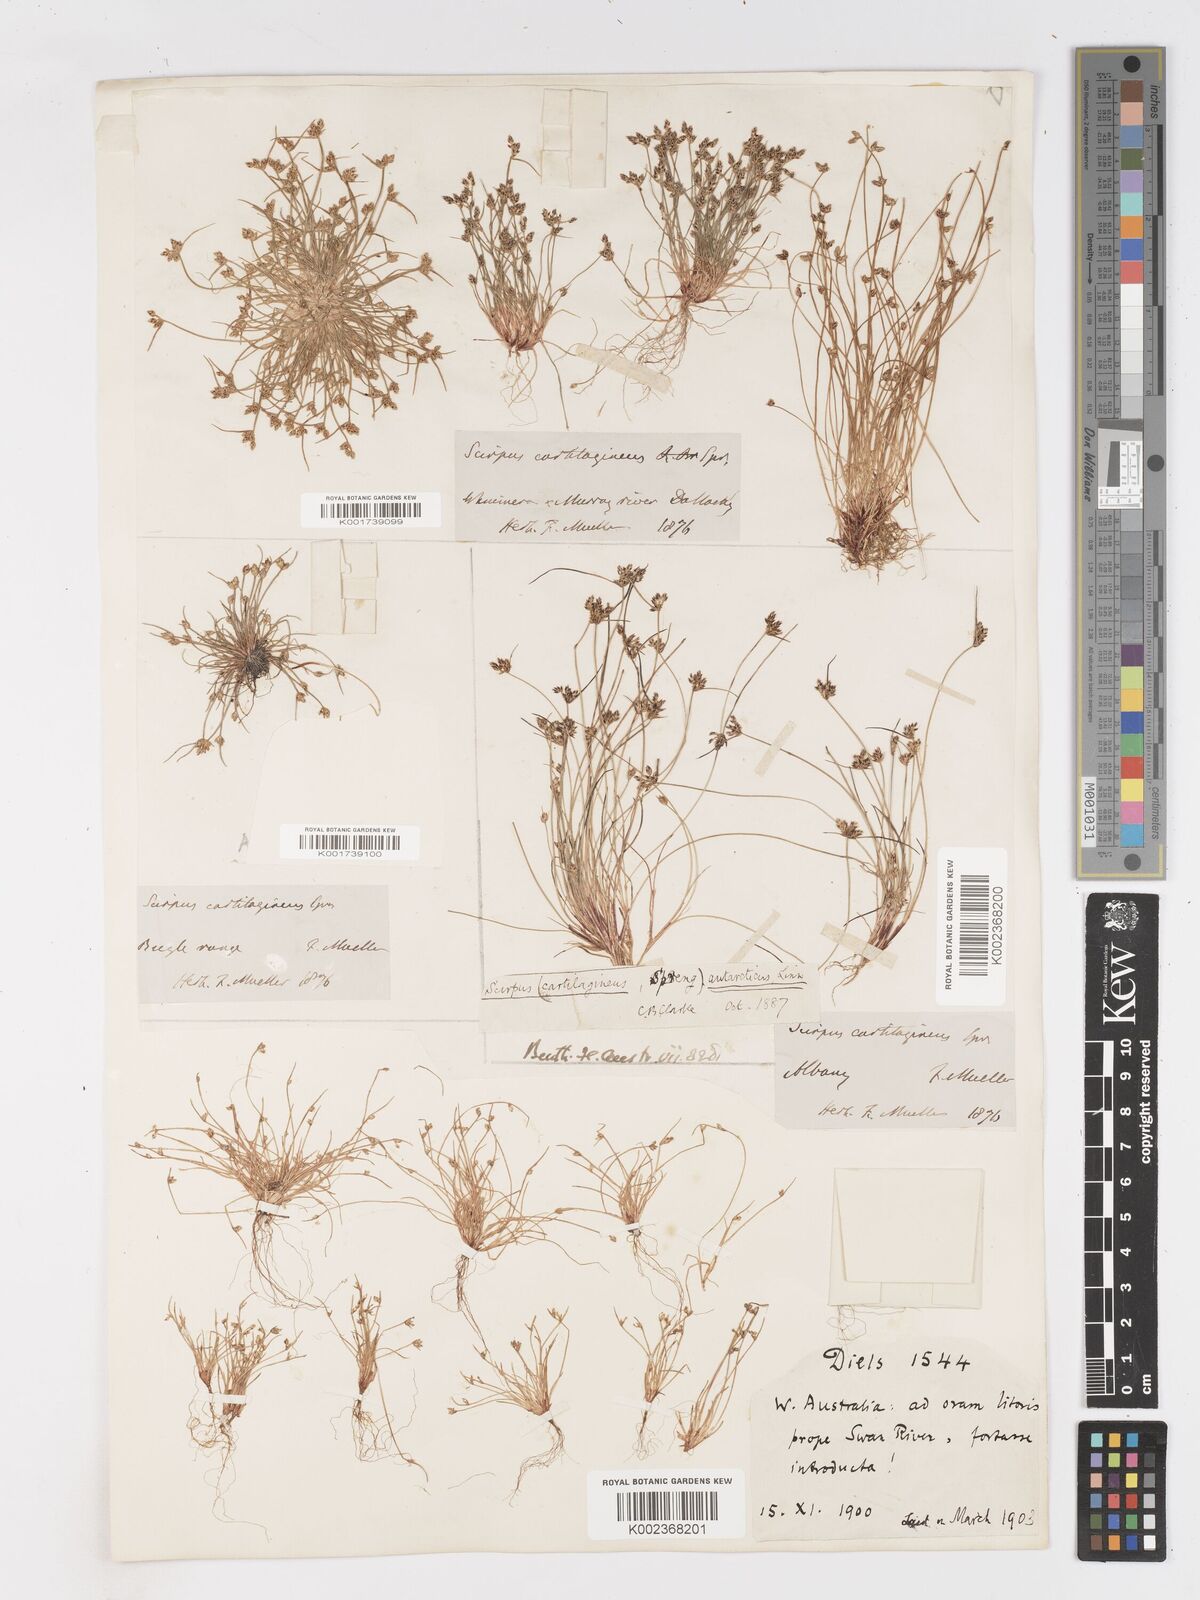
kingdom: Plantae
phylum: Tracheophyta
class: Liliopsida
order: Poales
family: Cyperaceae
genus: Isolepis
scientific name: Isolepis antarctica
